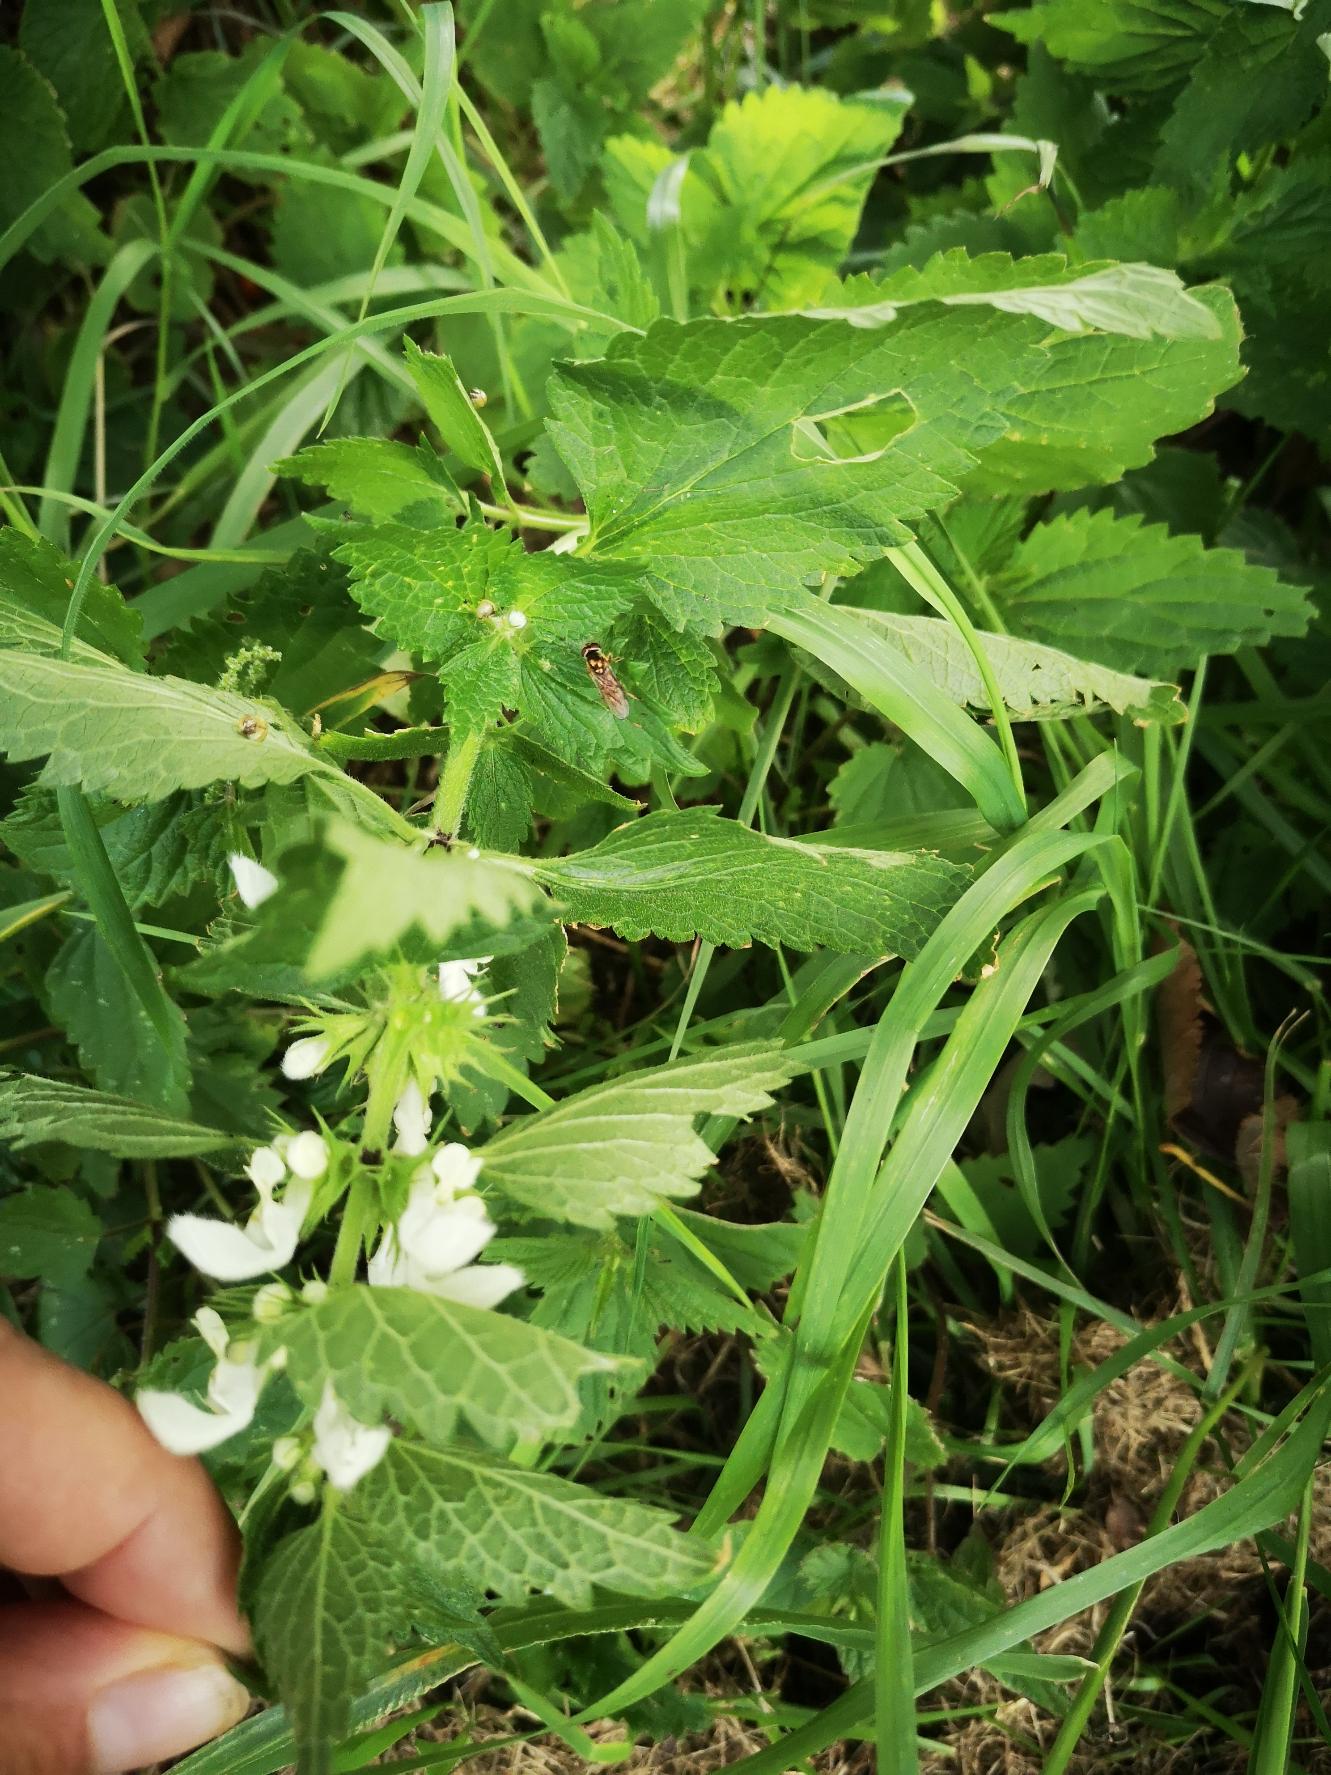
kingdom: Plantae
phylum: Tracheophyta
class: Magnoliopsida
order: Lamiales
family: Lamiaceae
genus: Lamium
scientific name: Lamium album
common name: Døvnælde
